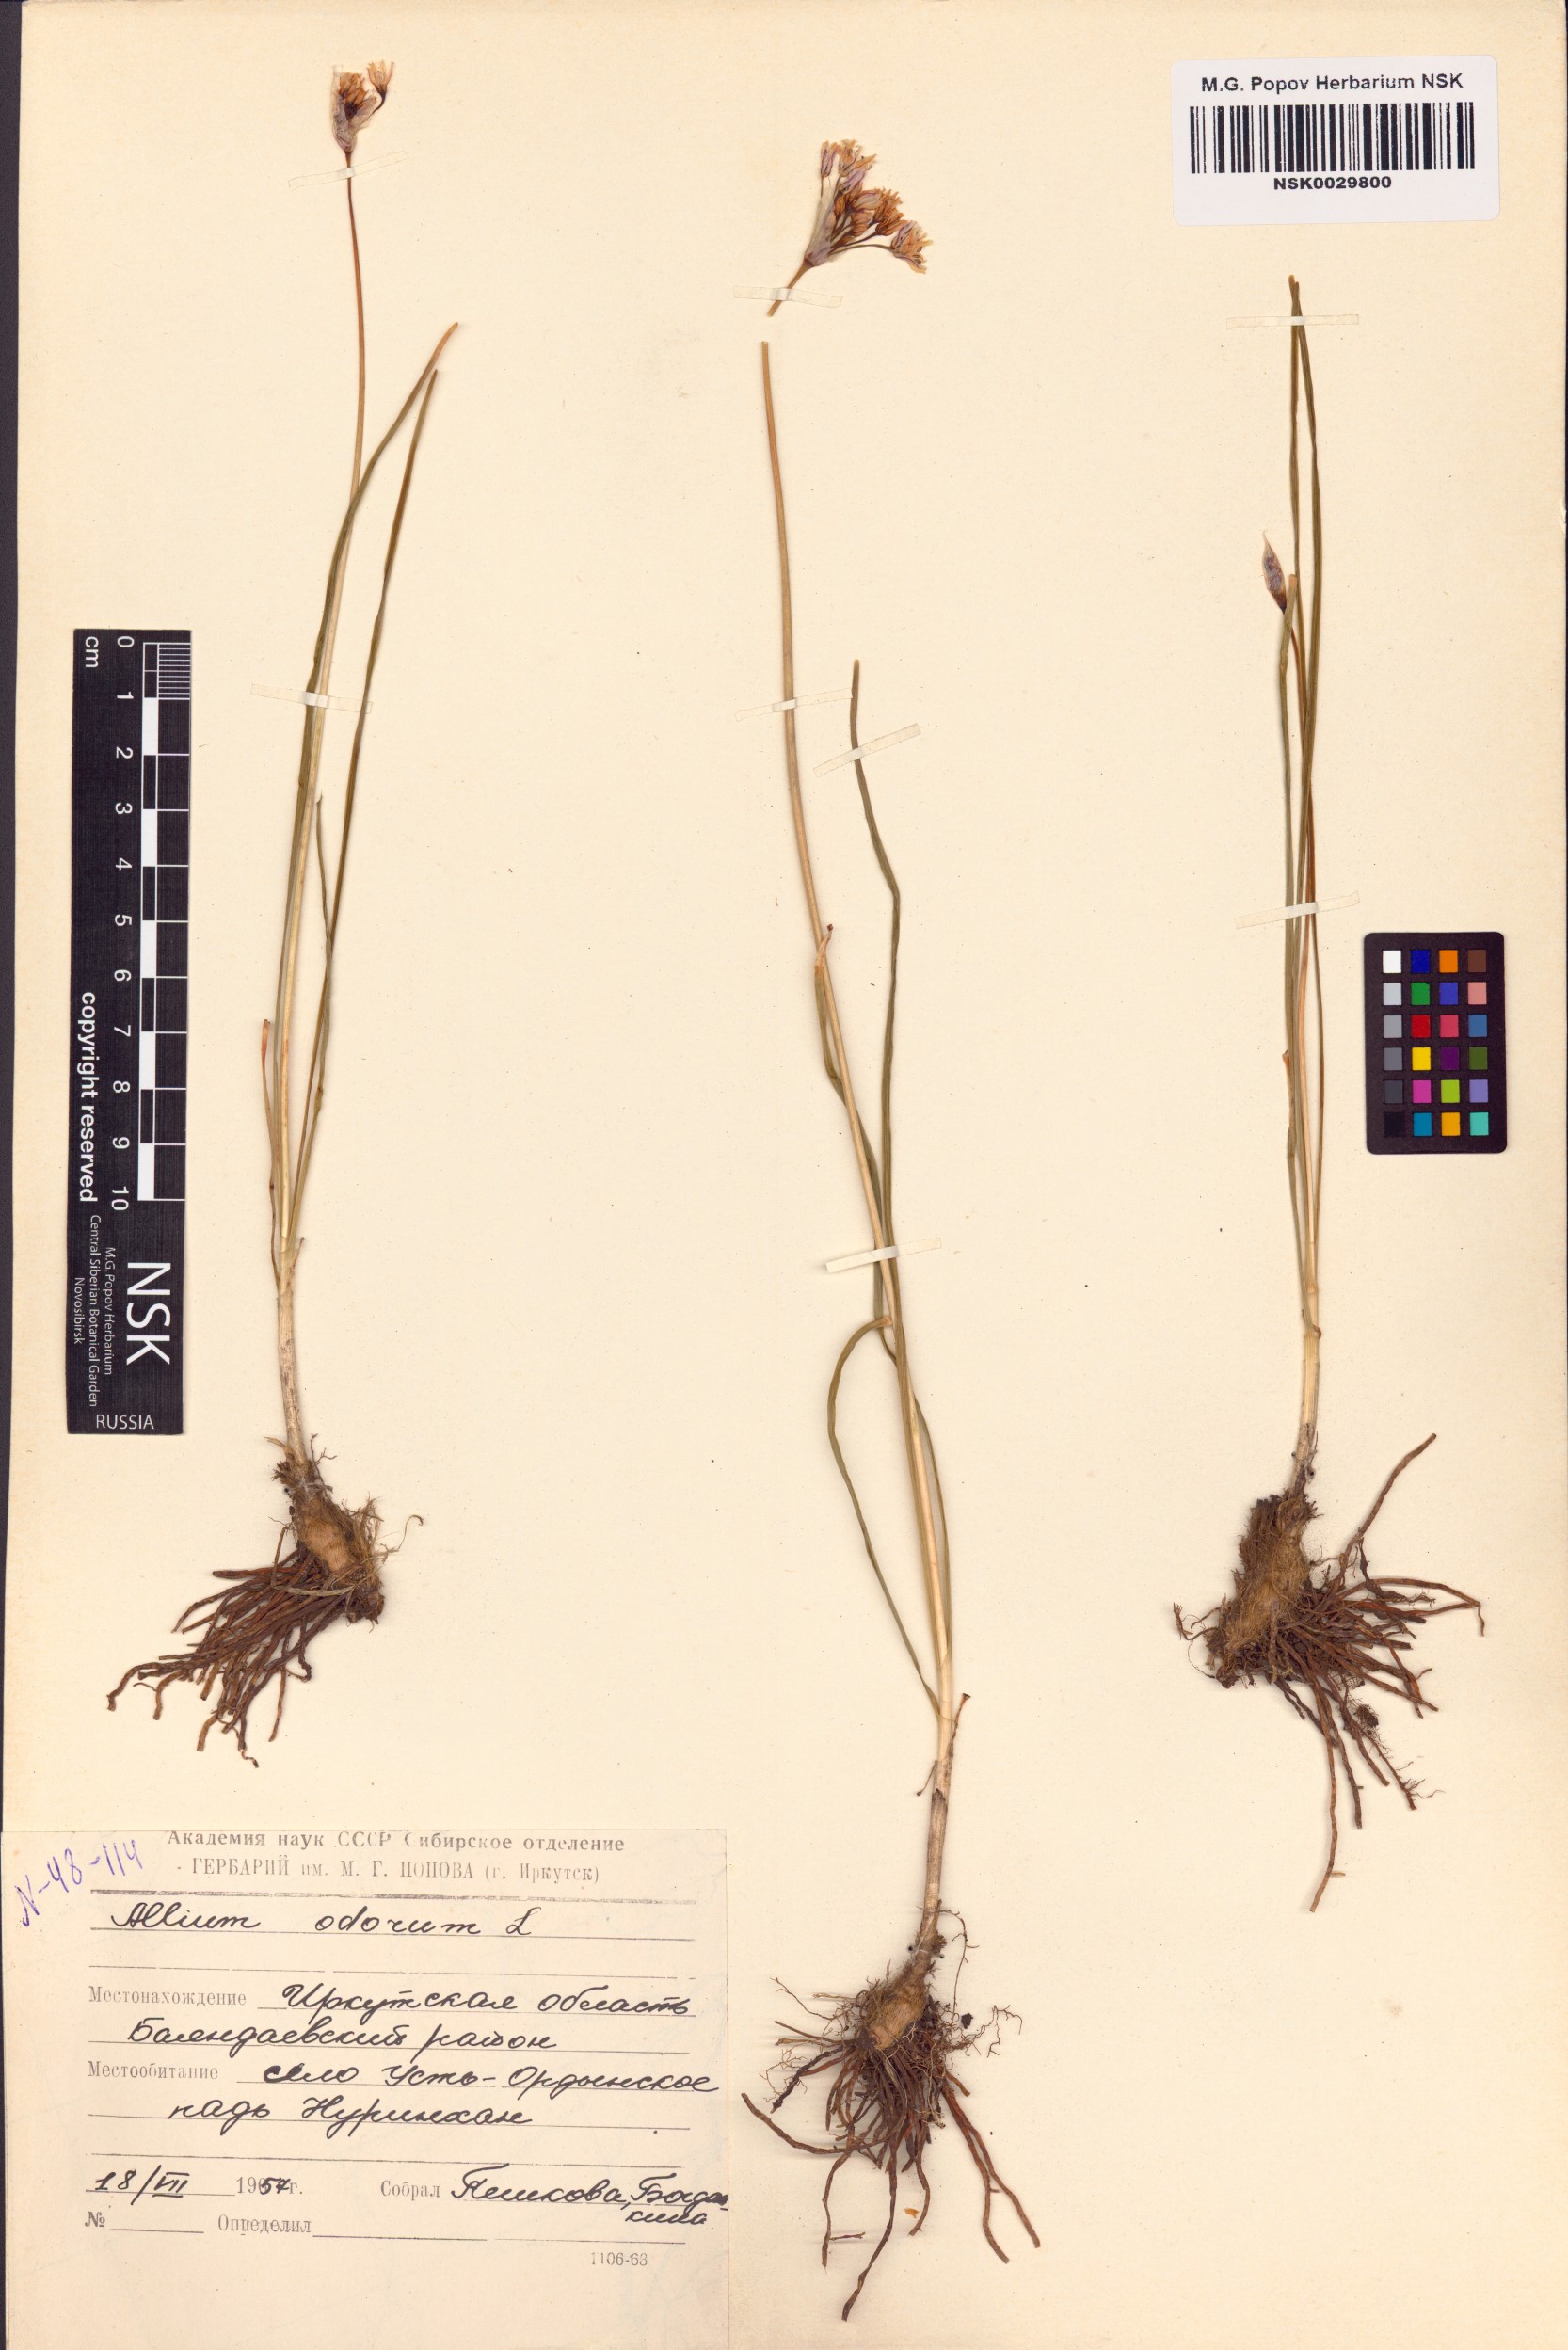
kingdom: Plantae
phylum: Tracheophyta
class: Liliopsida
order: Asparagales
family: Amaryllidaceae
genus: Allium
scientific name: Allium ramosum
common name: Fragrant garlic
